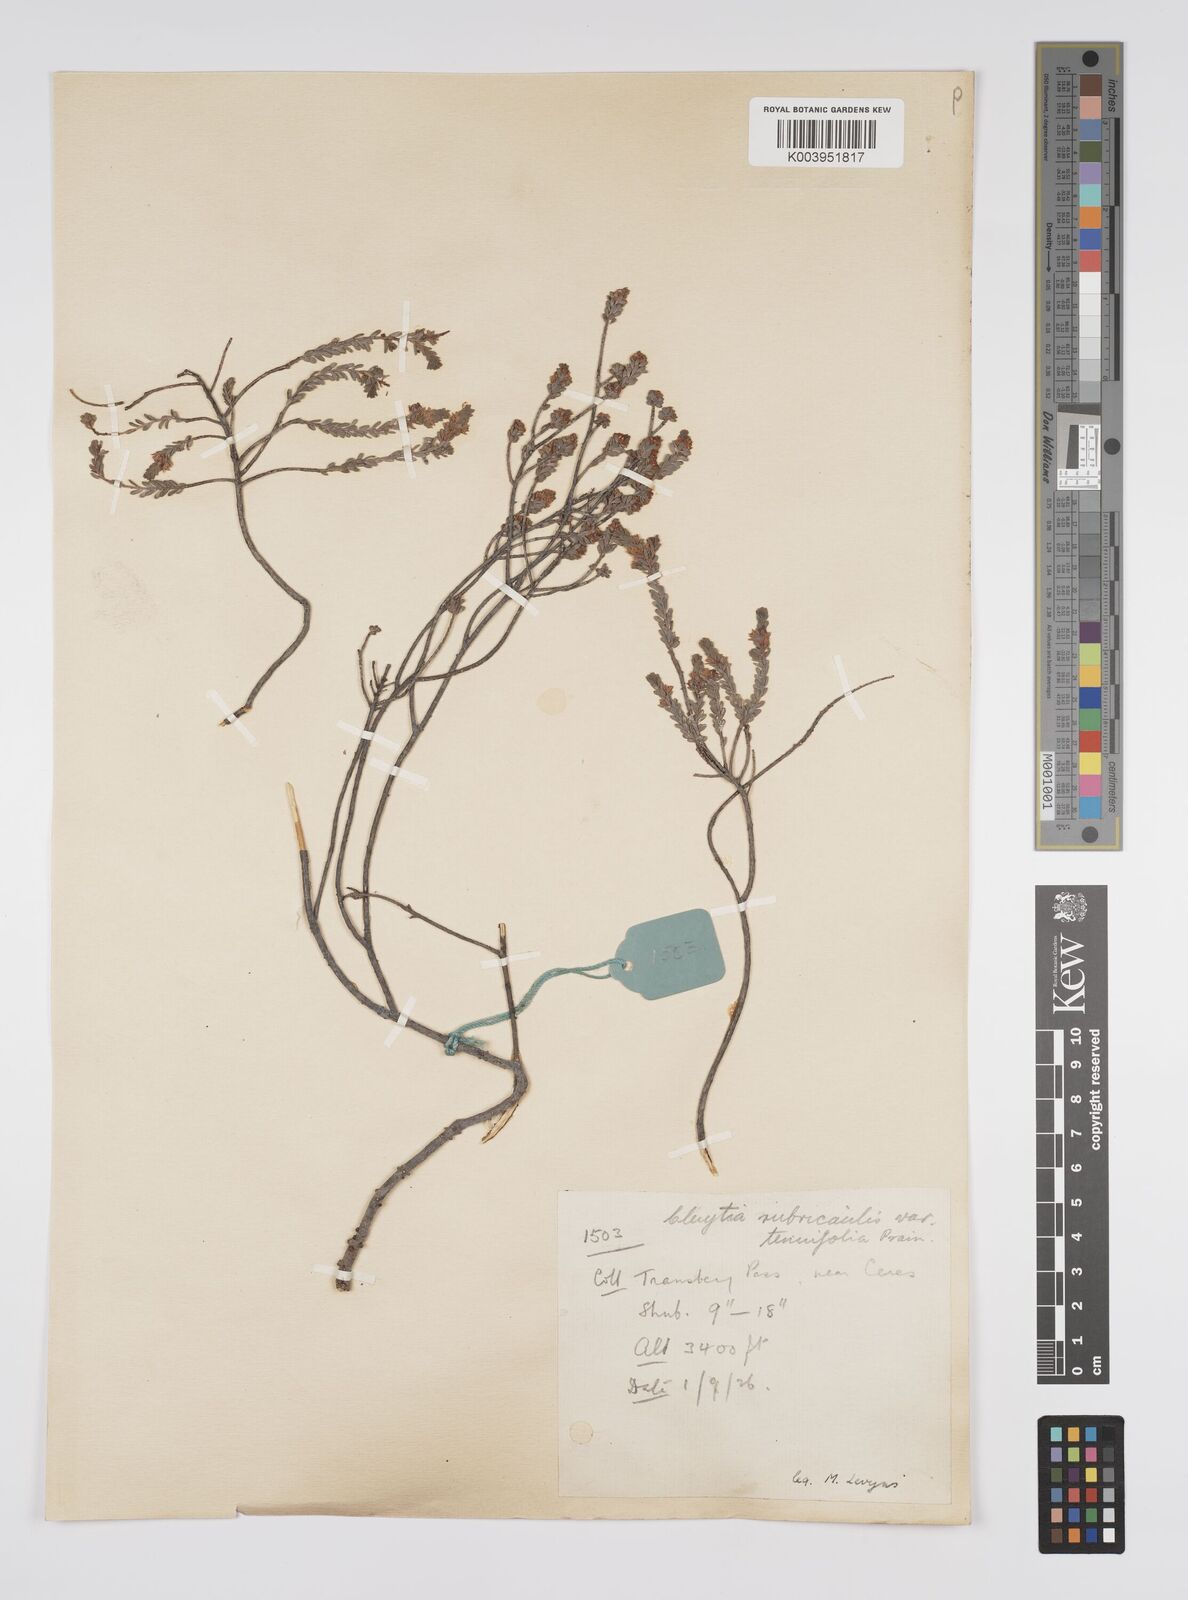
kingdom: Plantae
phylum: Tracheophyta
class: Magnoliopsida
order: Malpighiales
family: Peraceae
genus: Clutia
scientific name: Clutia rubricaulis
